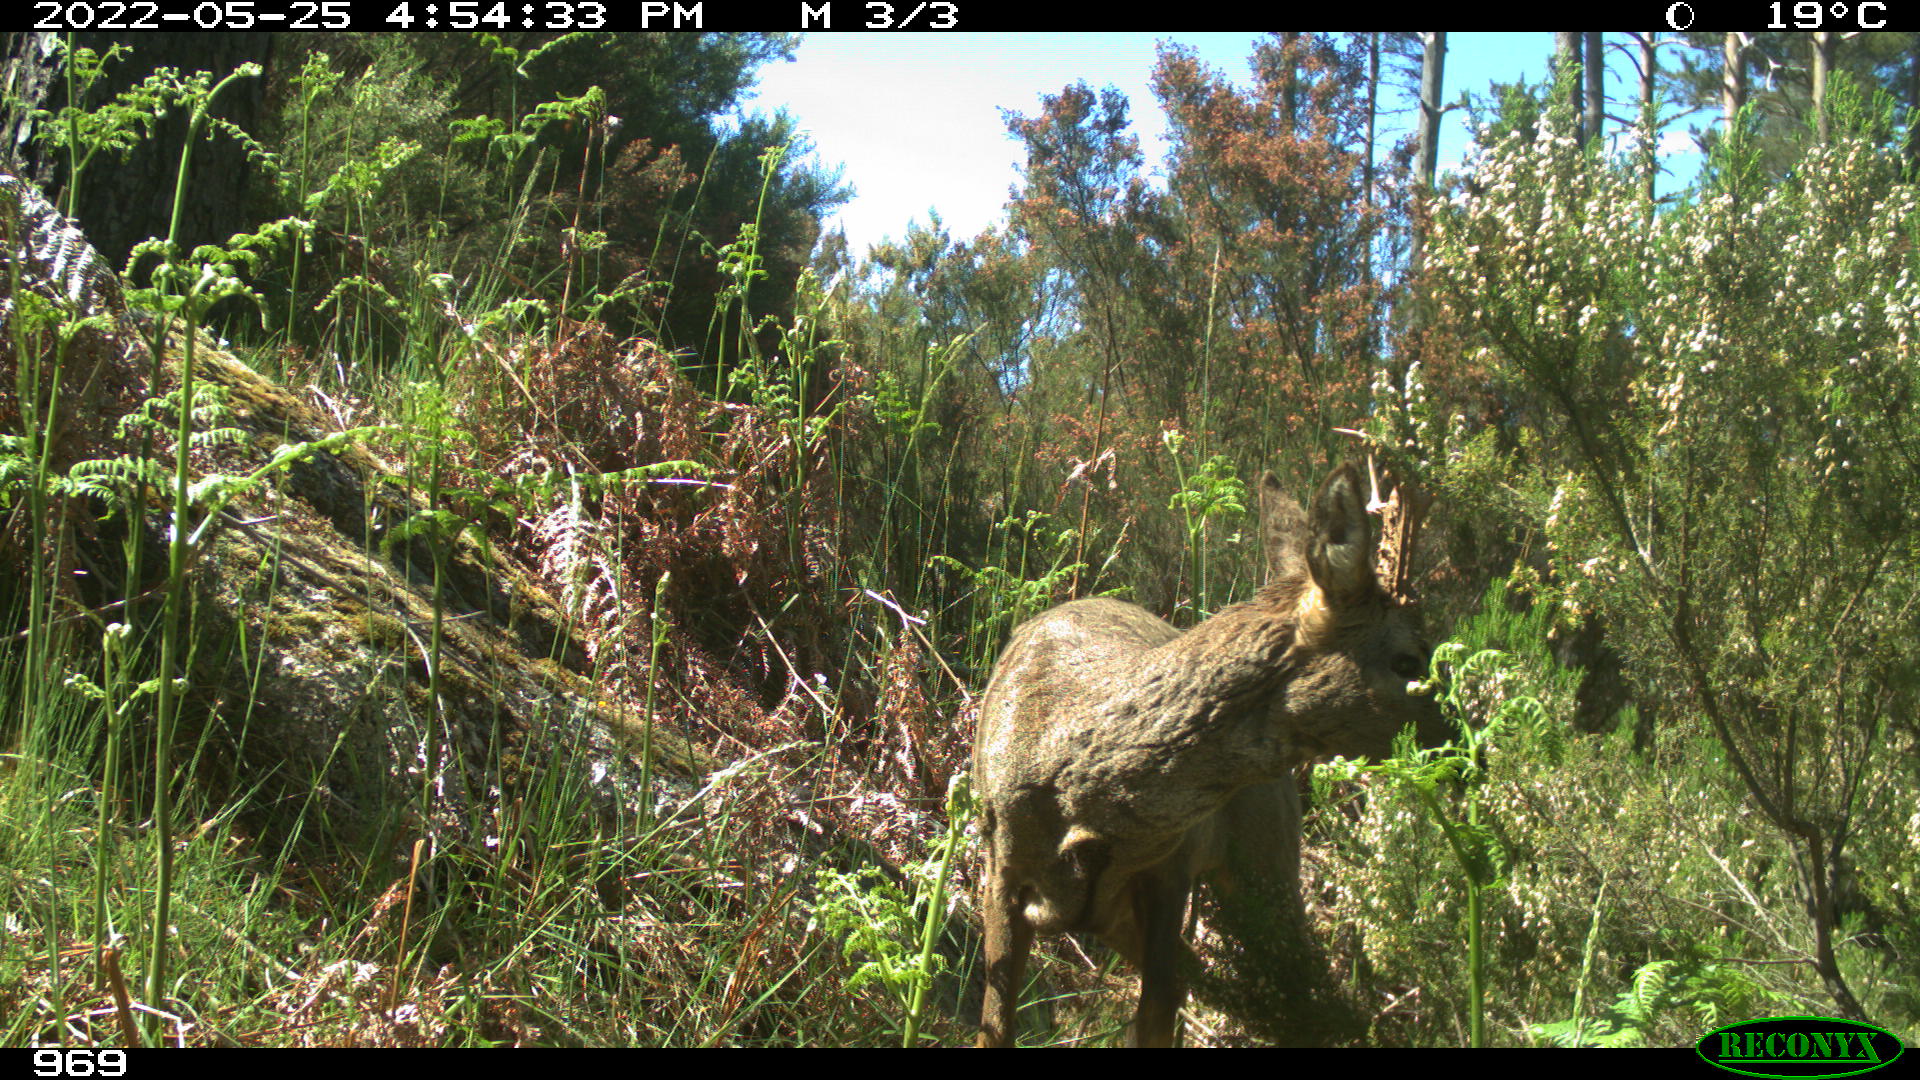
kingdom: Animalia
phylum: Chordata
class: Mammalia
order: Artiodactyla
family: Cervidae
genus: Capreolus
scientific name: Capreolus capreolus
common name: Western roe deer
